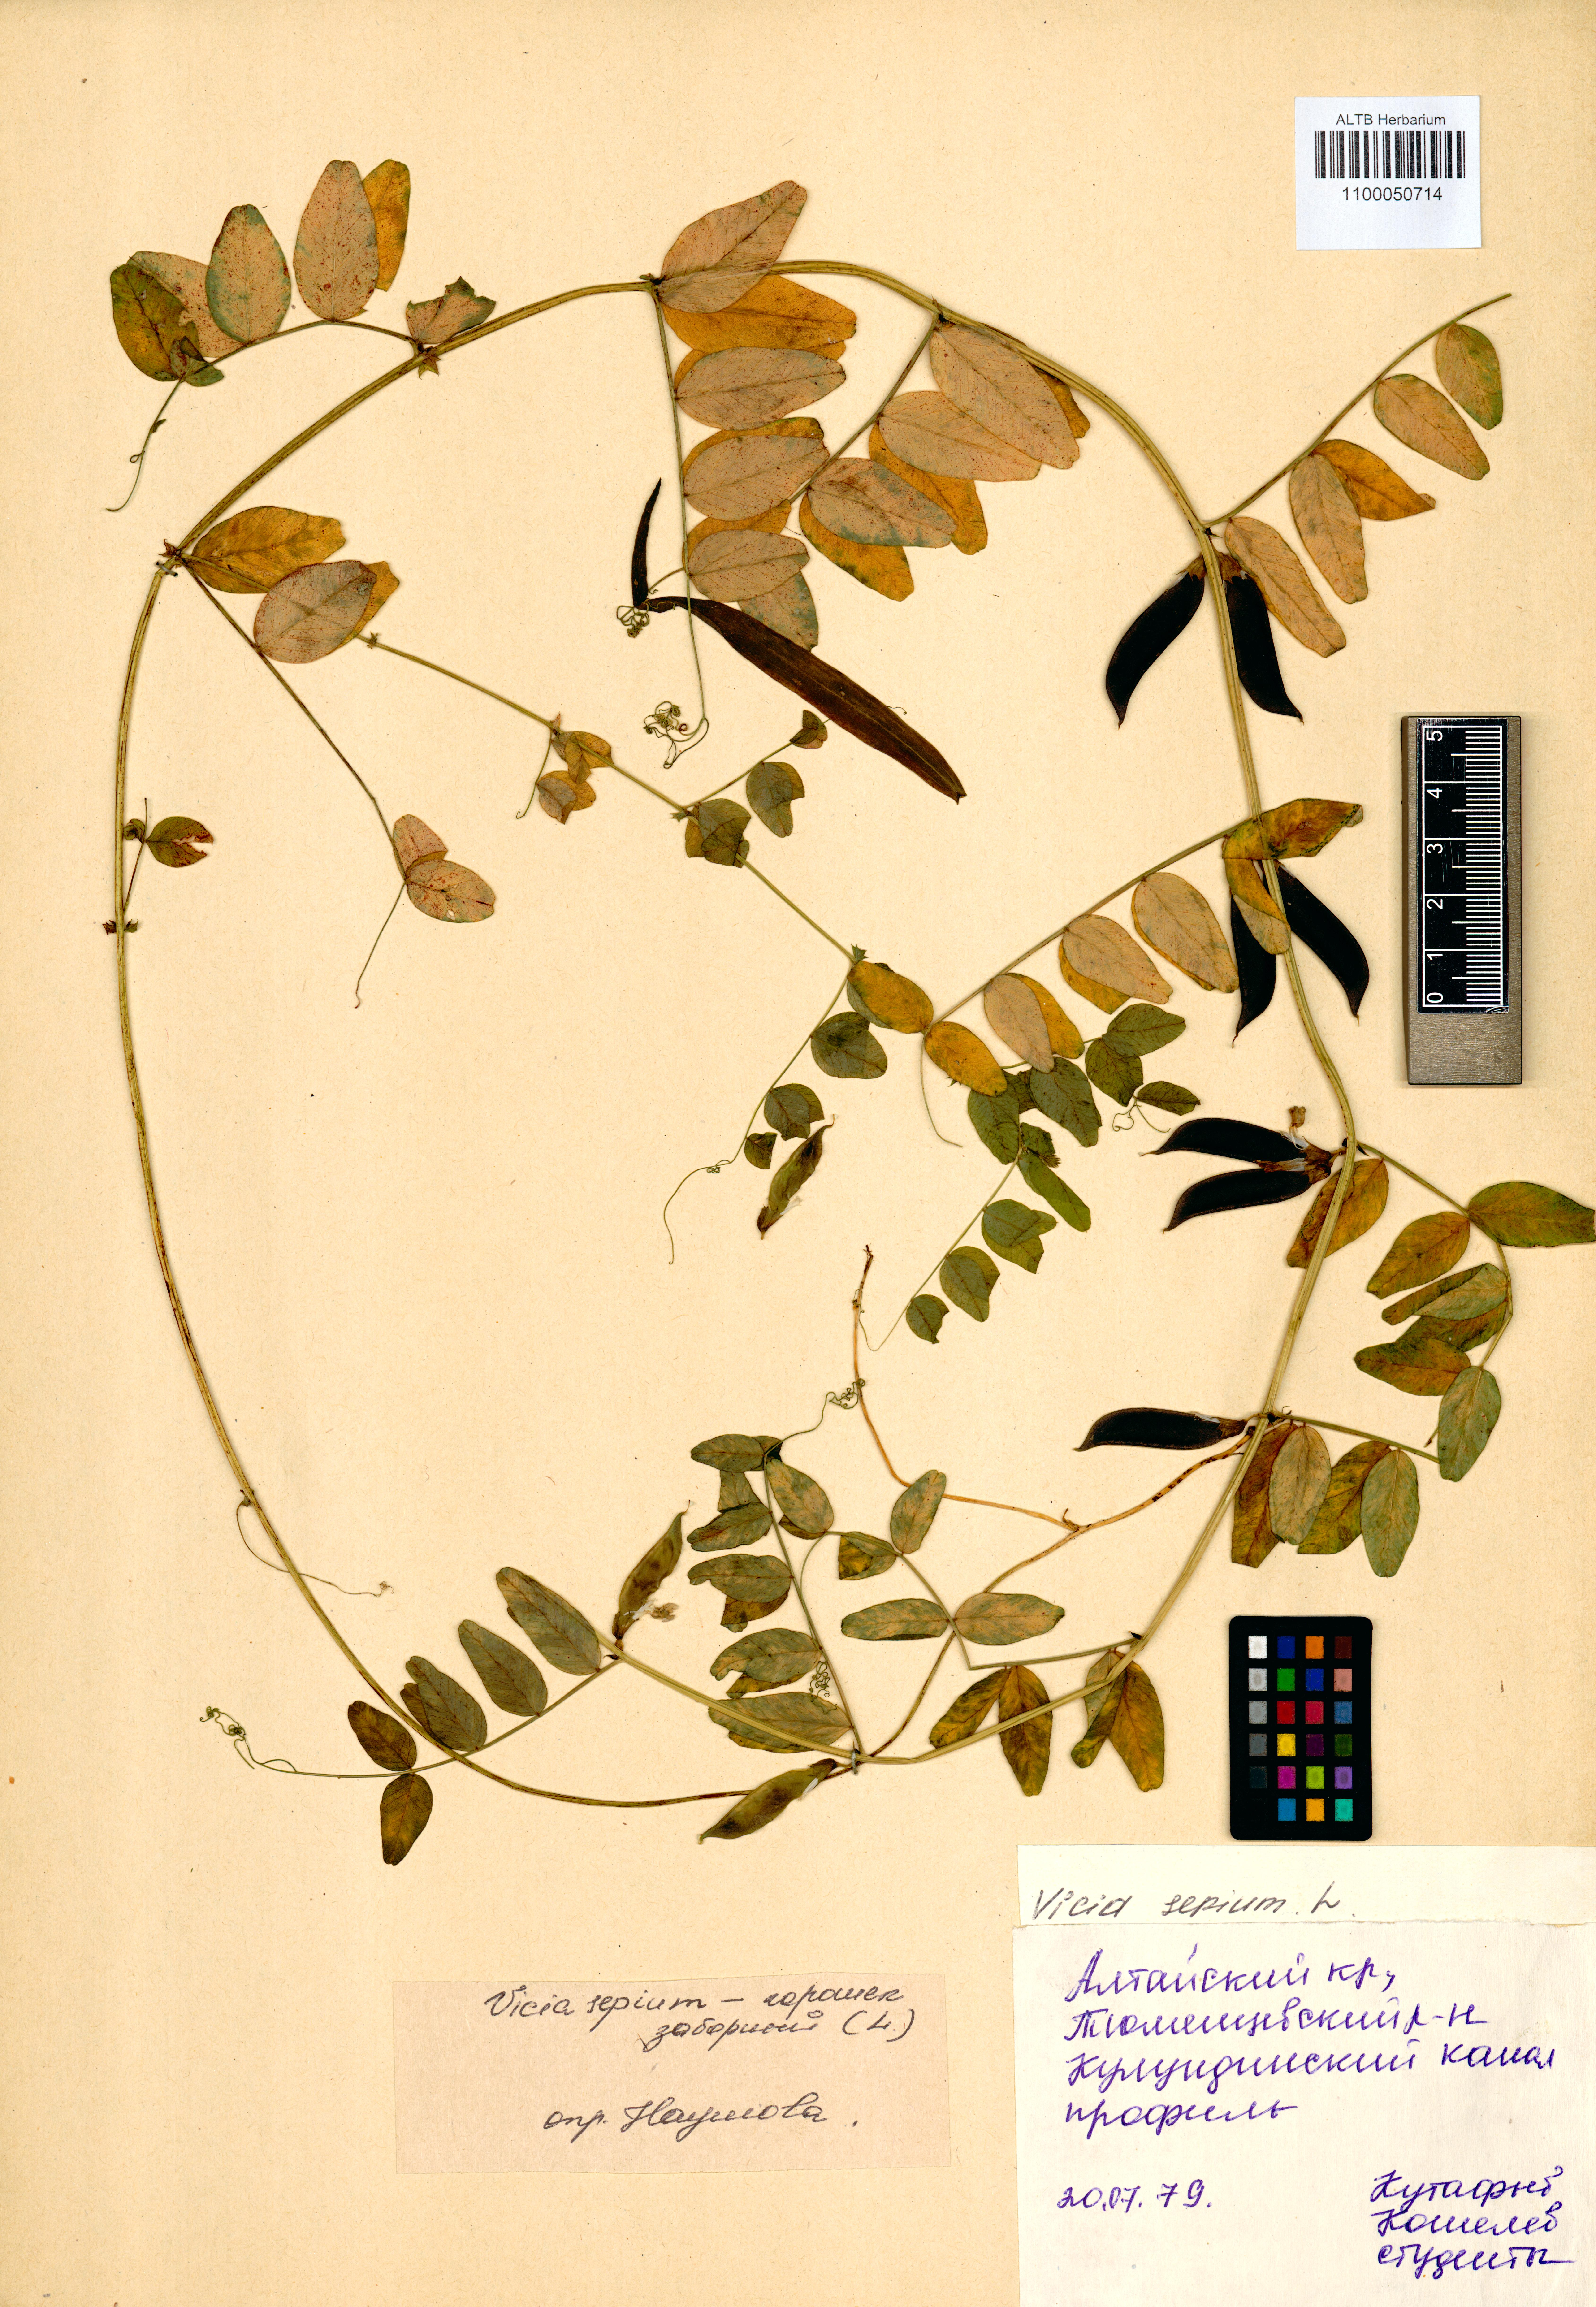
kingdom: Plantae
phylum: Tracheophyta
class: Magnoliopsida
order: Fabales
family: Fabaceae
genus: Vicia
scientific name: Vicia sepium
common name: Bush vetch
